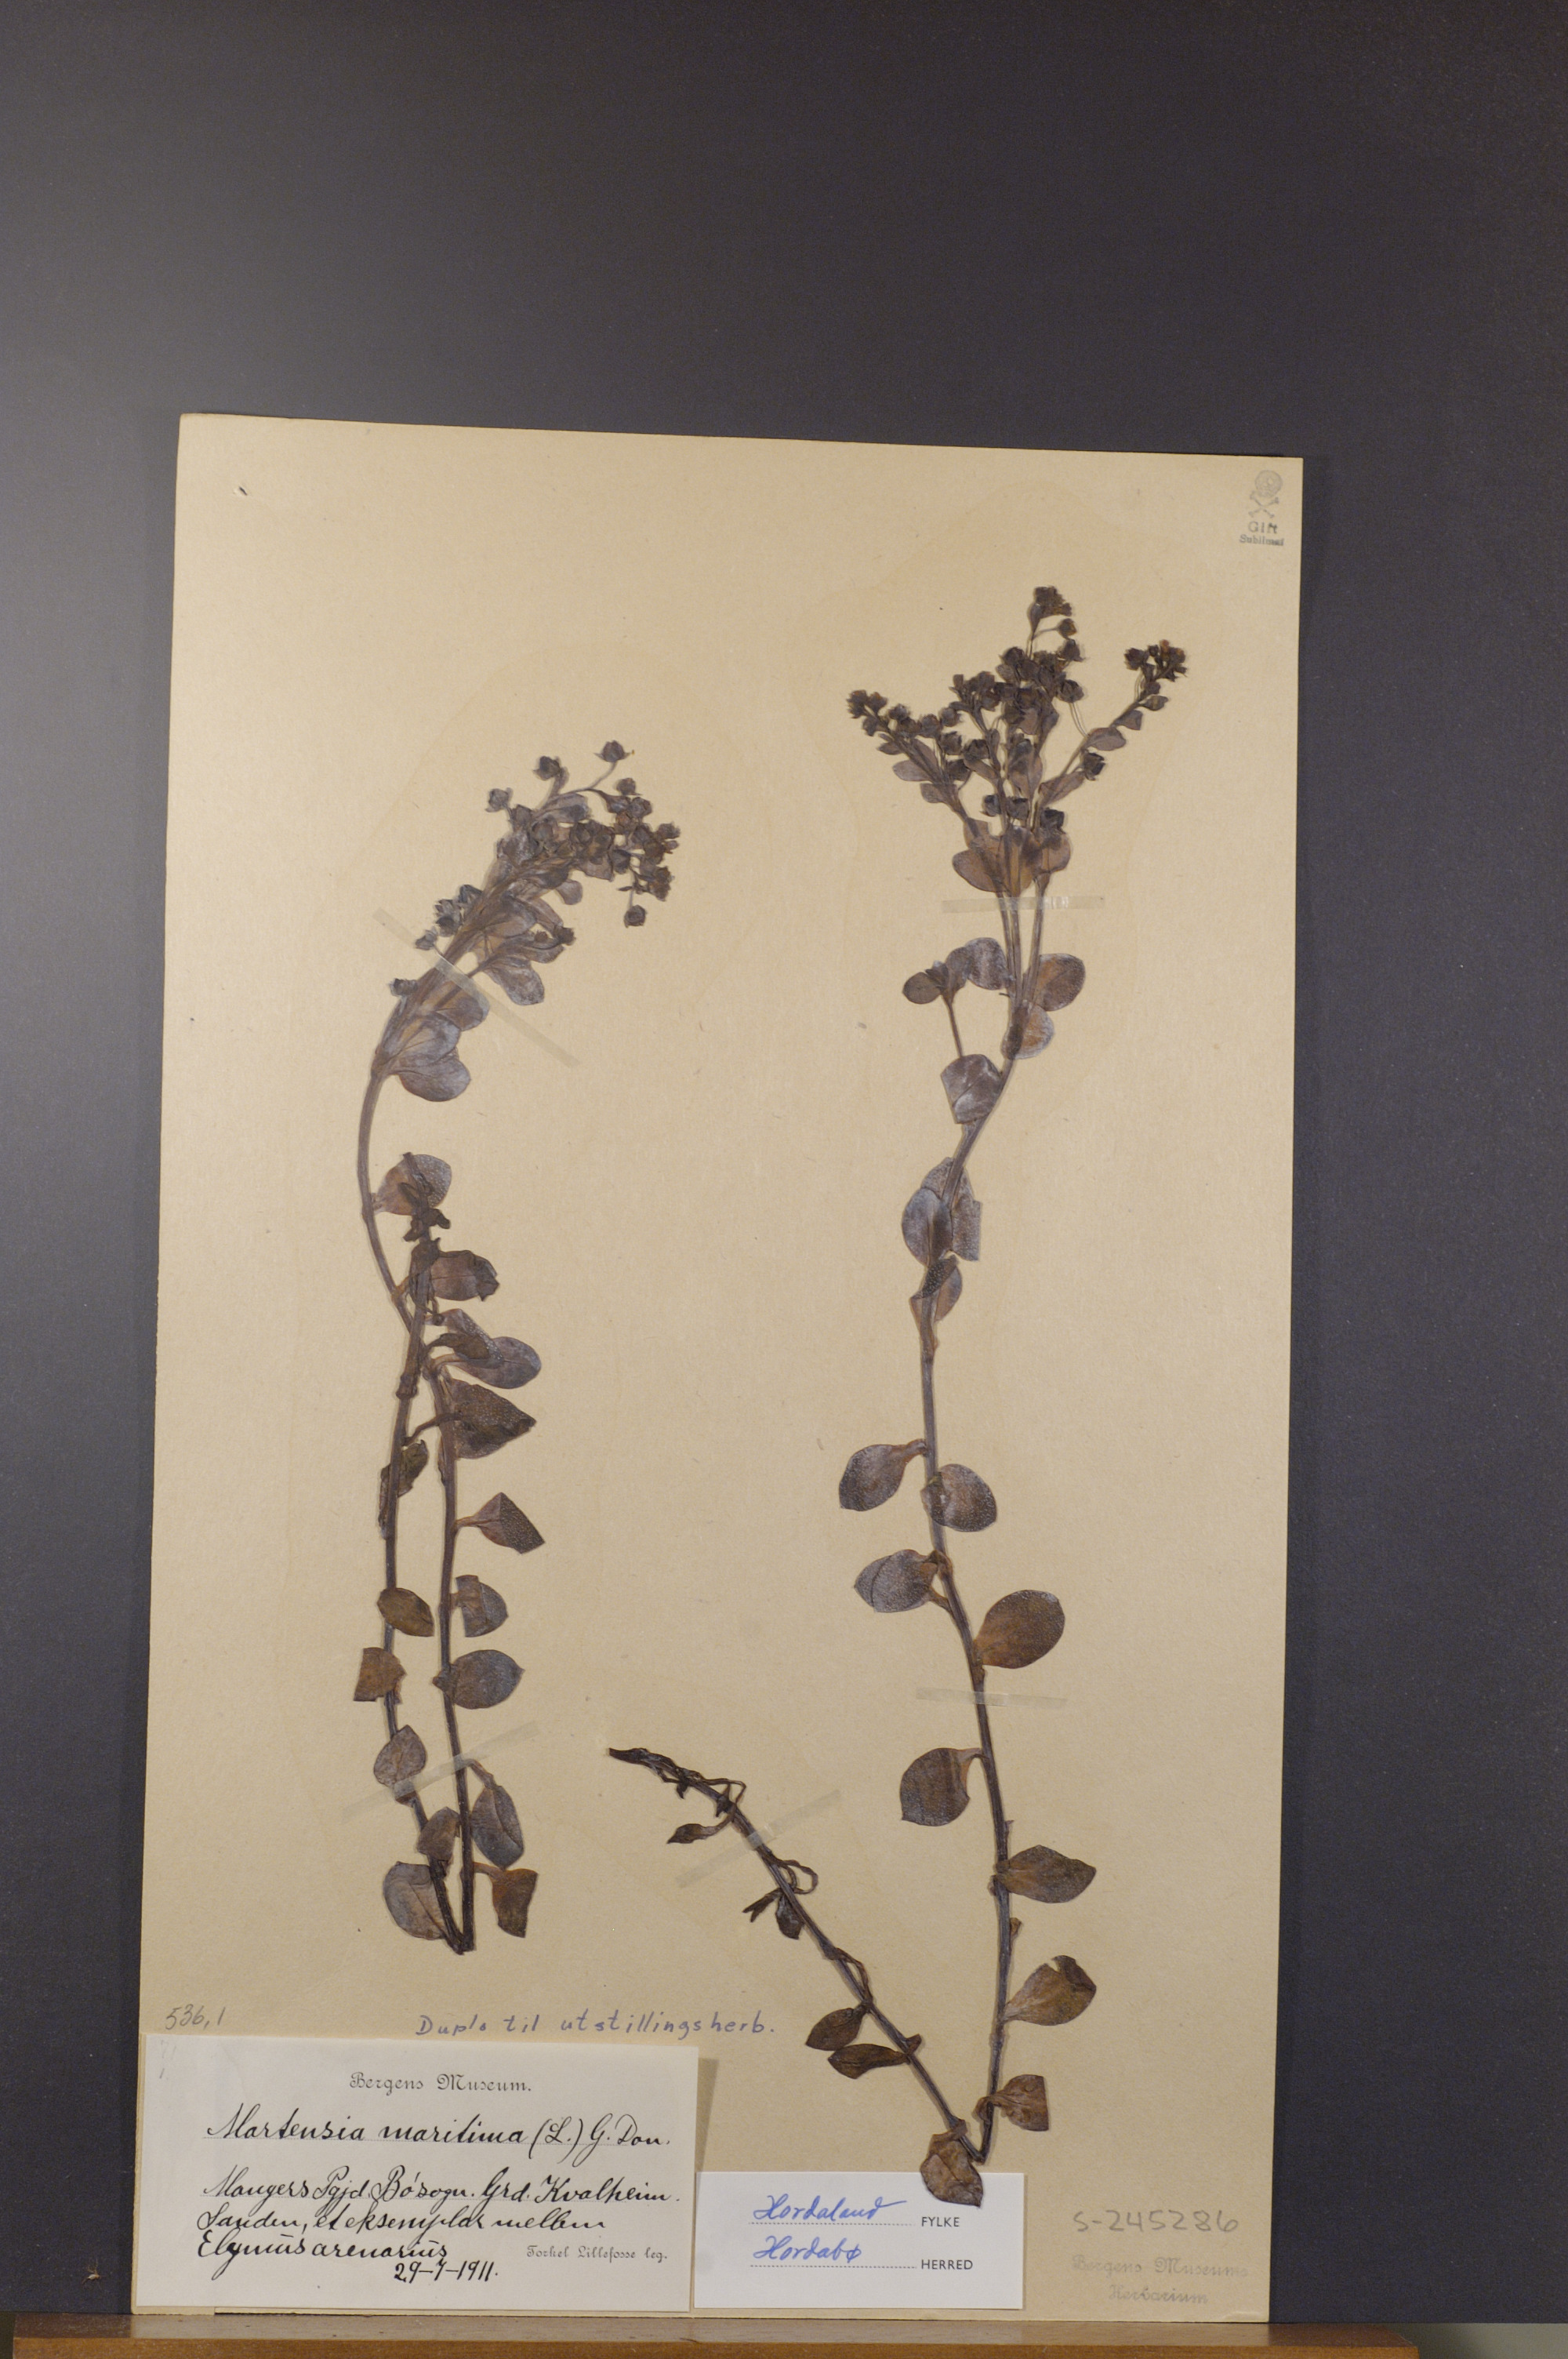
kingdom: Plantae
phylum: Tracheophyta
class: Magnoliopsida
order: Boraginales
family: Boraginaceae
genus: Mertensia
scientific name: Mertensia maritima
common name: Oysterplant
